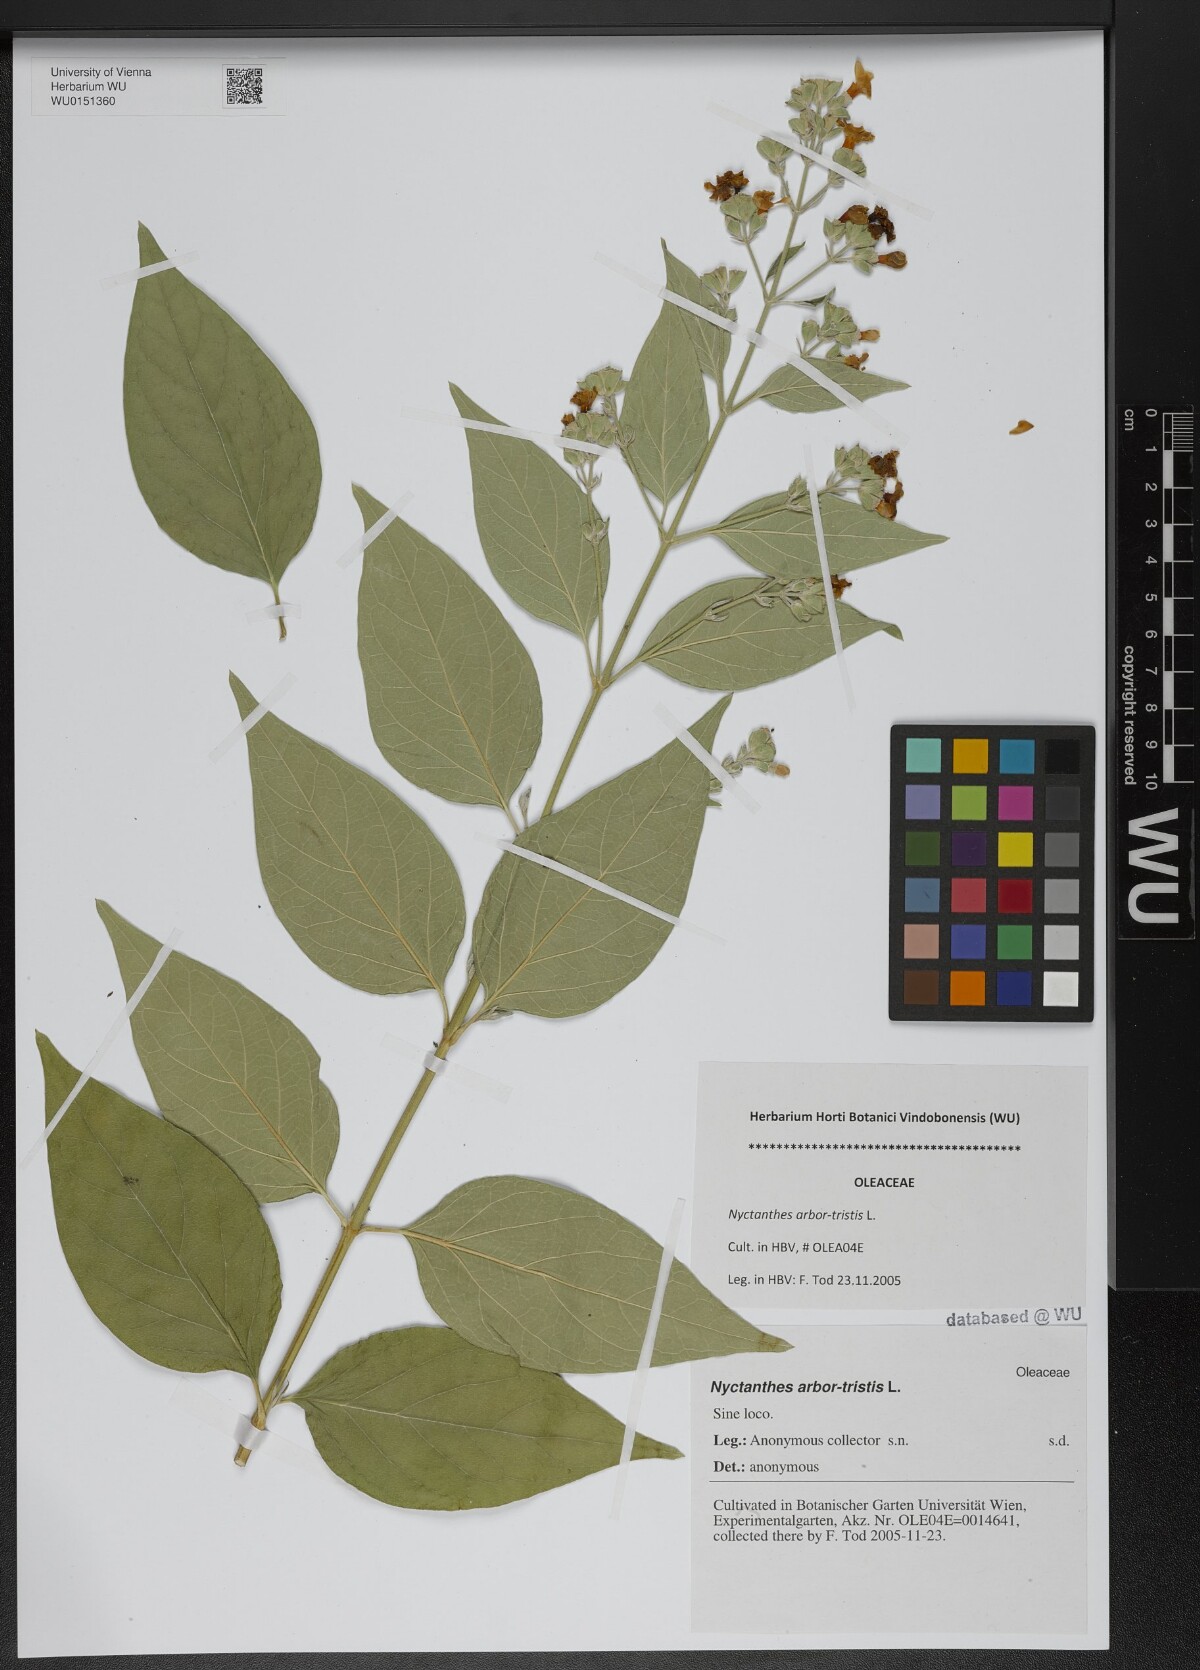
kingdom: Plantae
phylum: Tracheophyta
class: Magnoliopsida
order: Lamiales
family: Oleaceae
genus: Nyctanthes
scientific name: Nyctanthes arbor-tristis
